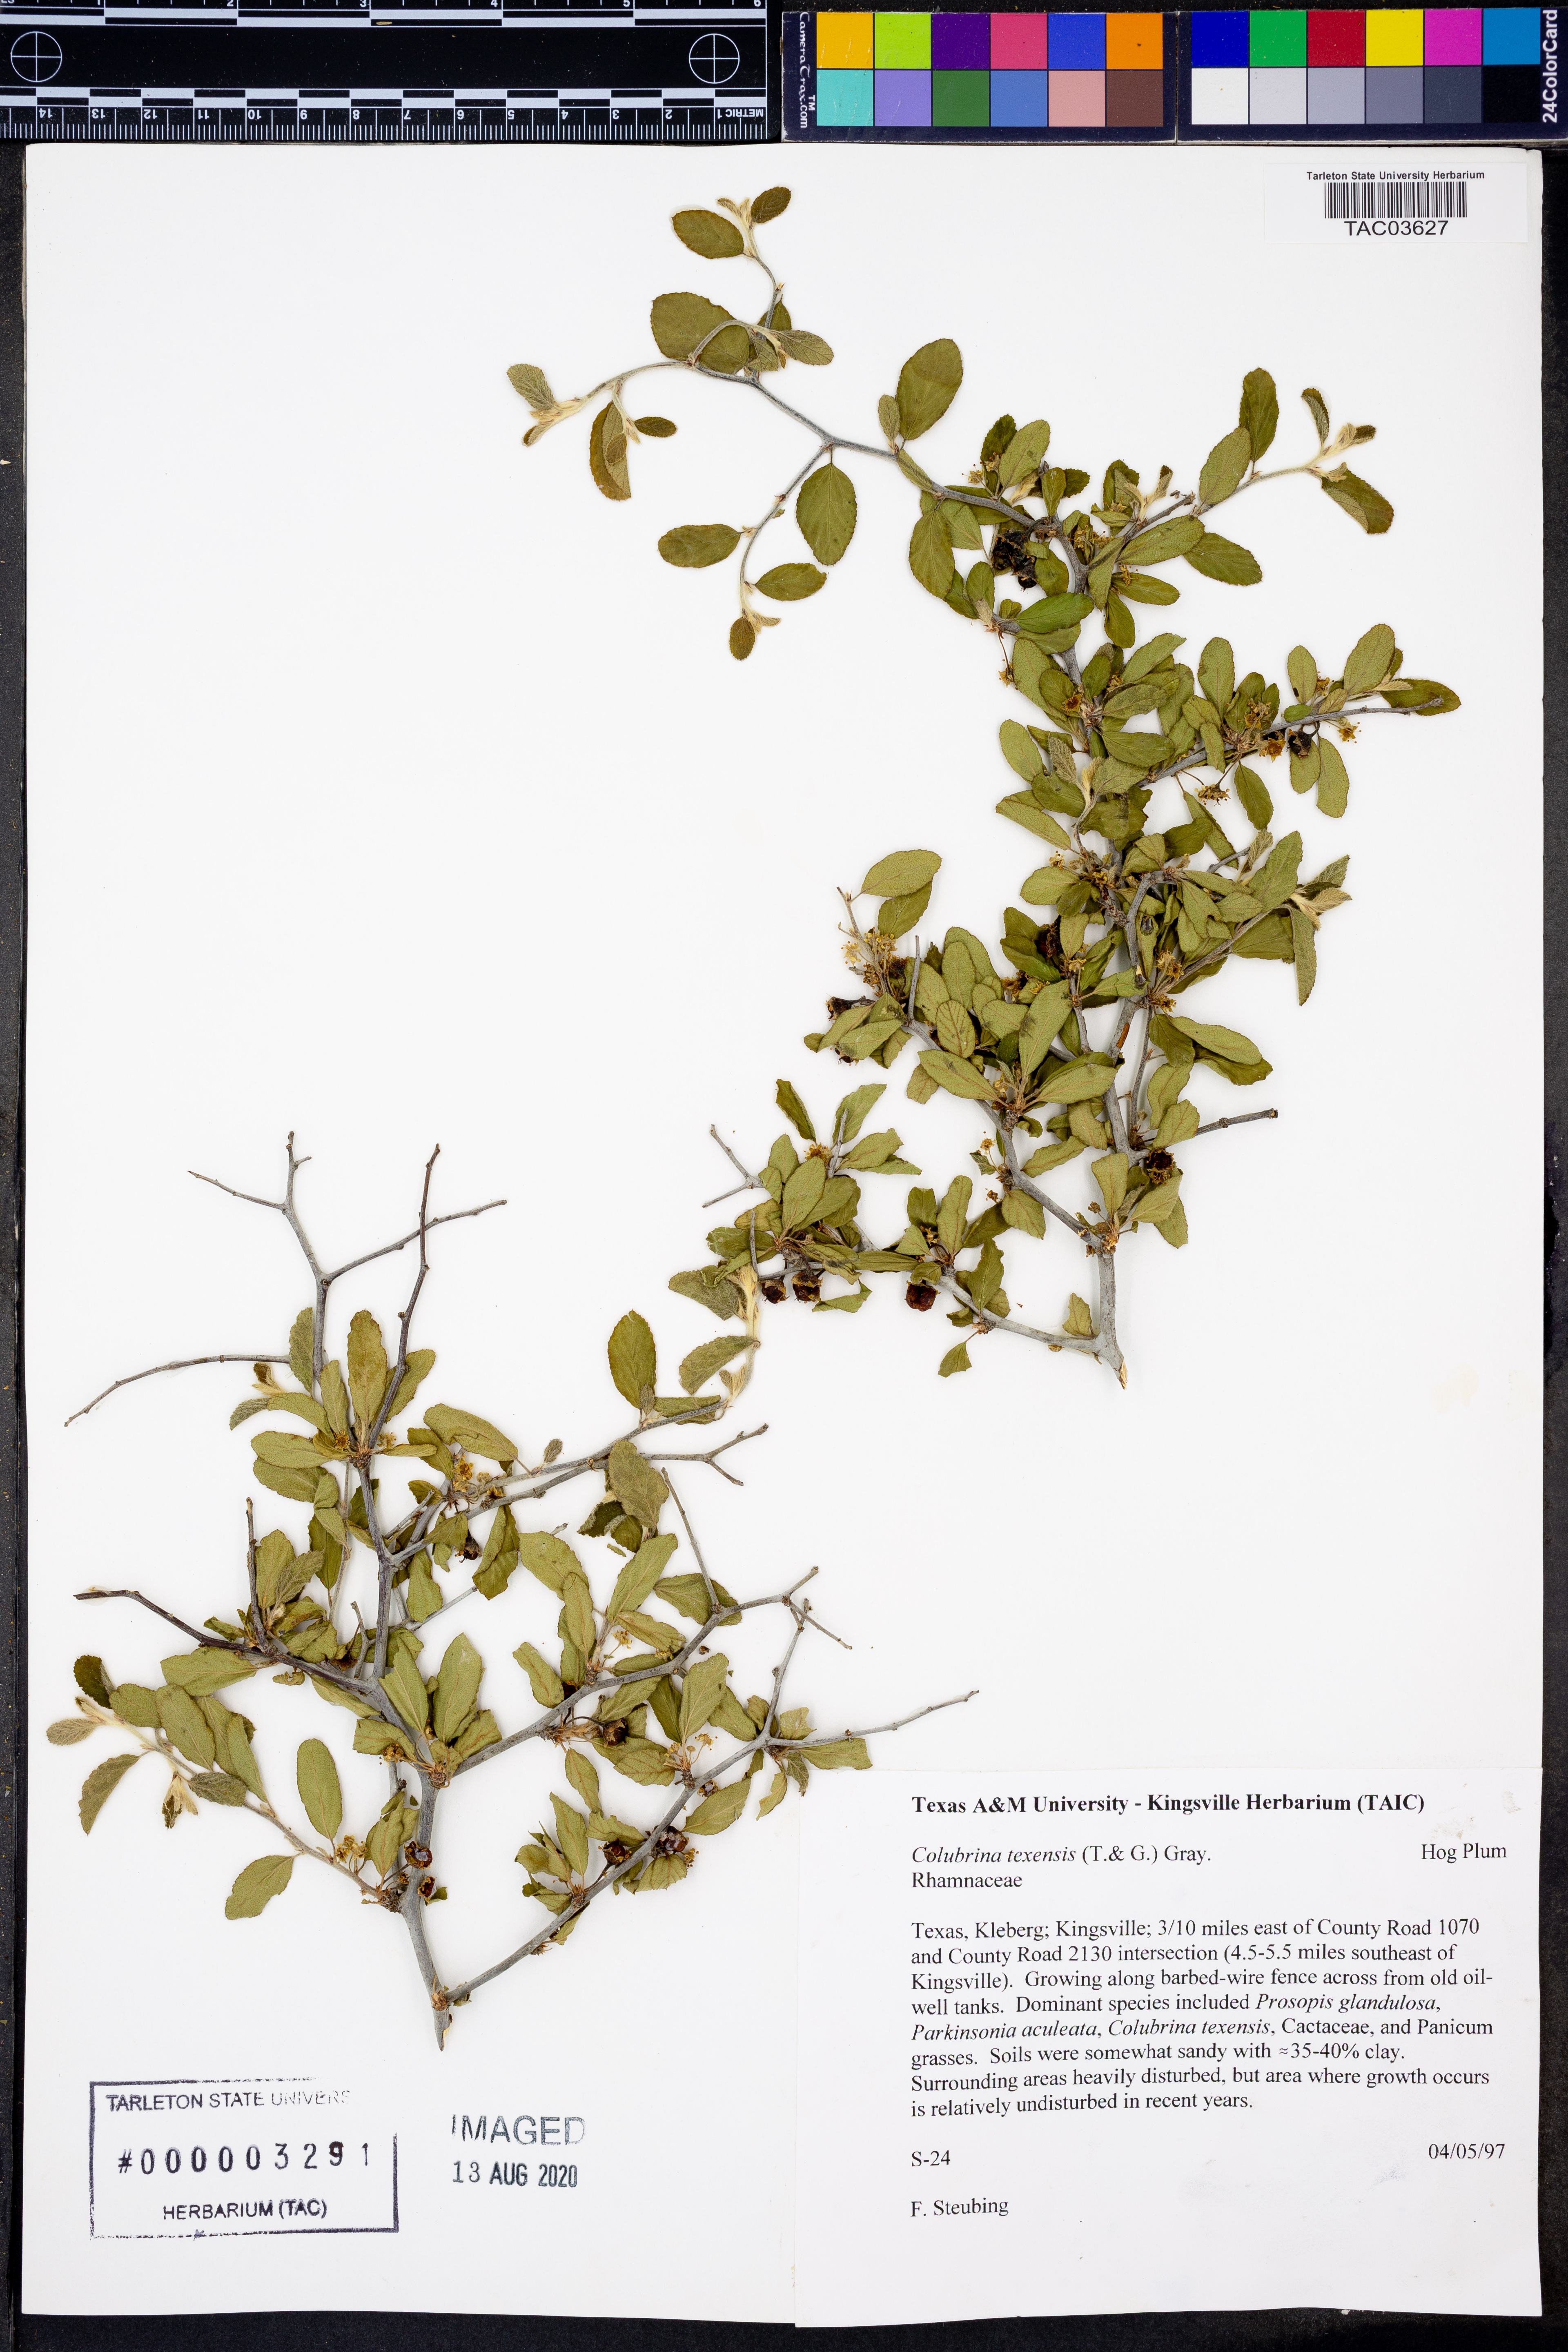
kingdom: Plantae
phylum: Tracheophyta
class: Magnoliopsida
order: Rosales
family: Rhamnaceae
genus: Colubrina
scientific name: Colubrina texensis
